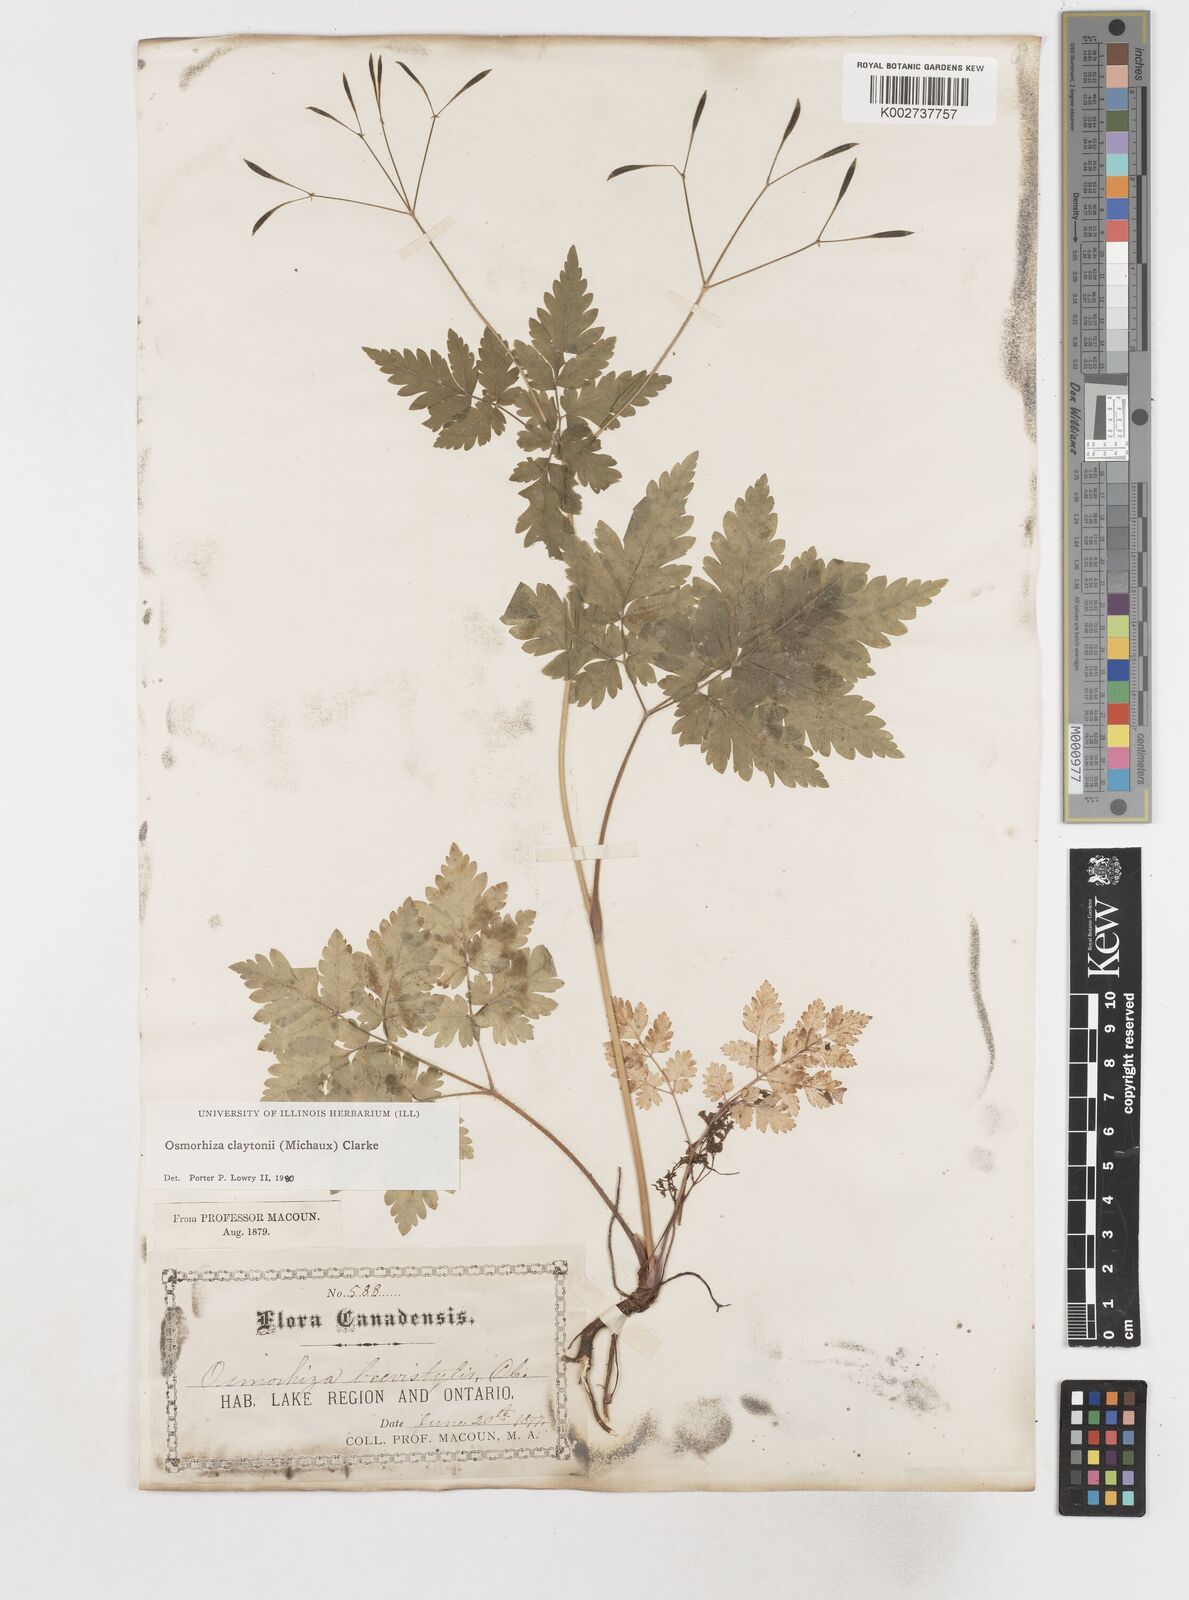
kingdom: Plantae
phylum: Tracheophyta
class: Magnoliopsida
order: Apiales
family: Apiaceae
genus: Osmorhiza
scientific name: Osmorhiza claytonii
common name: Hairy sweet cicely
